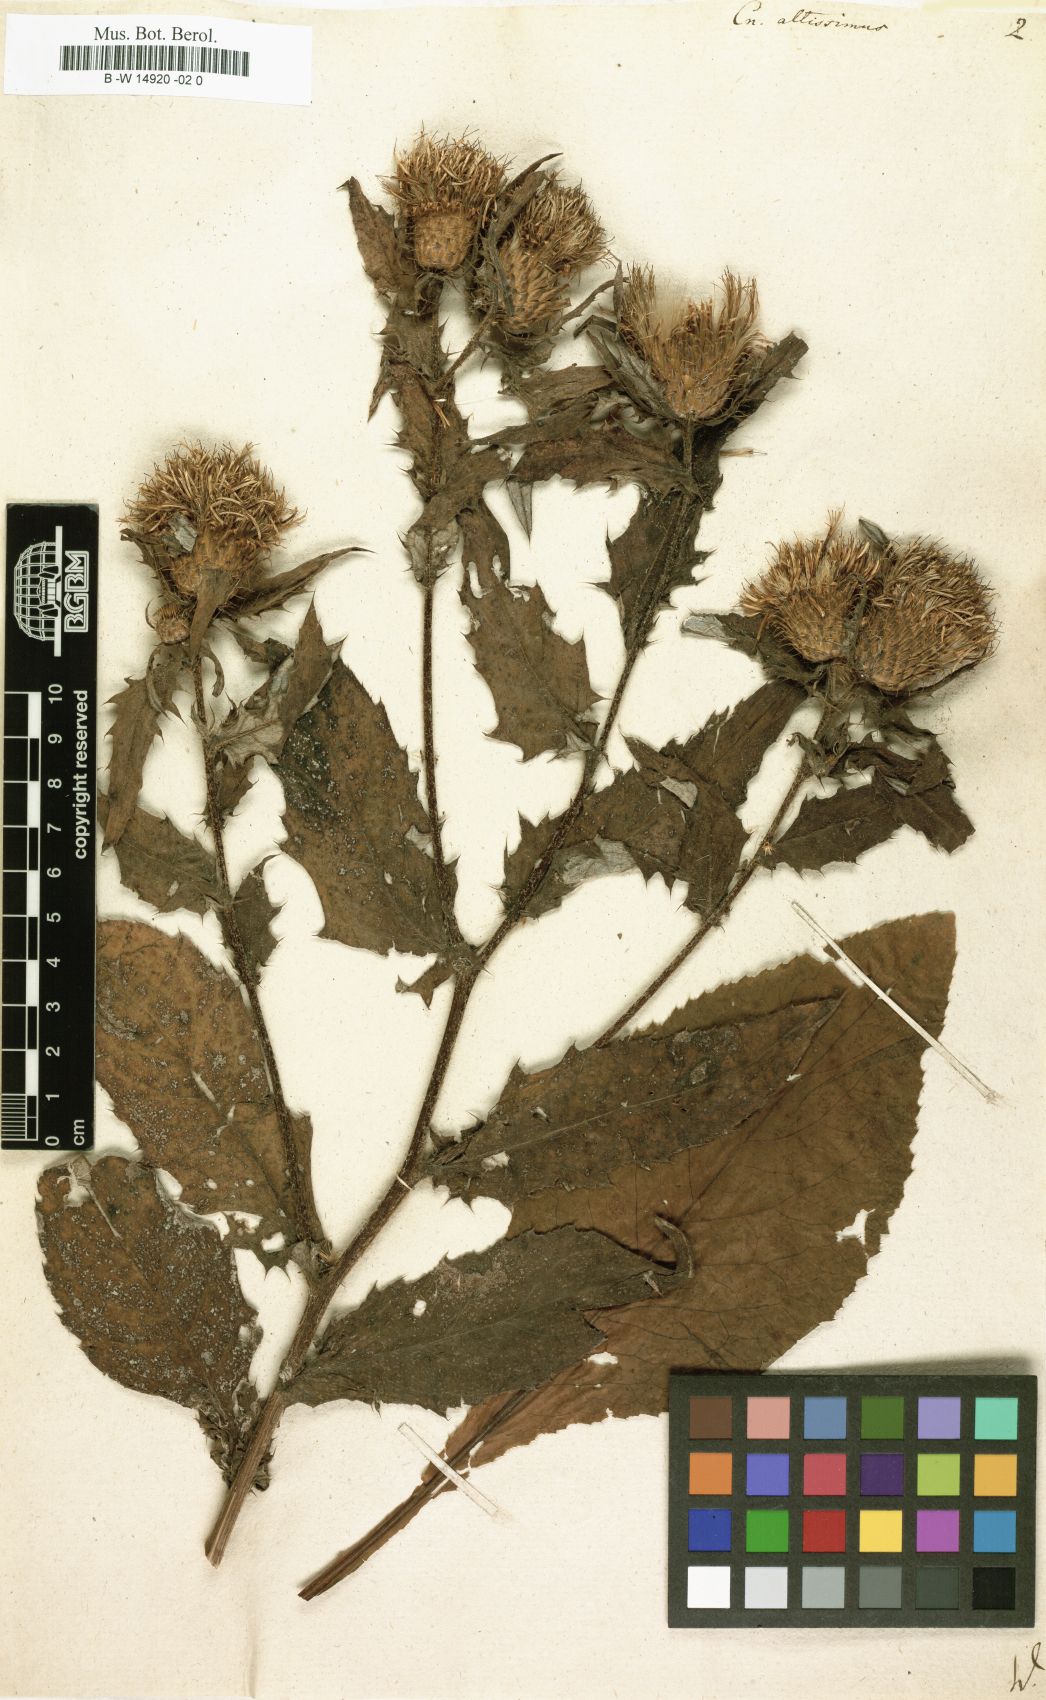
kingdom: Plantae
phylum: Tracheophyta
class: Magnoliopsida
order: Asterales
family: Asteraceae
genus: Cirsium
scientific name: Cirsium altissimum
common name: Roadside thistle
